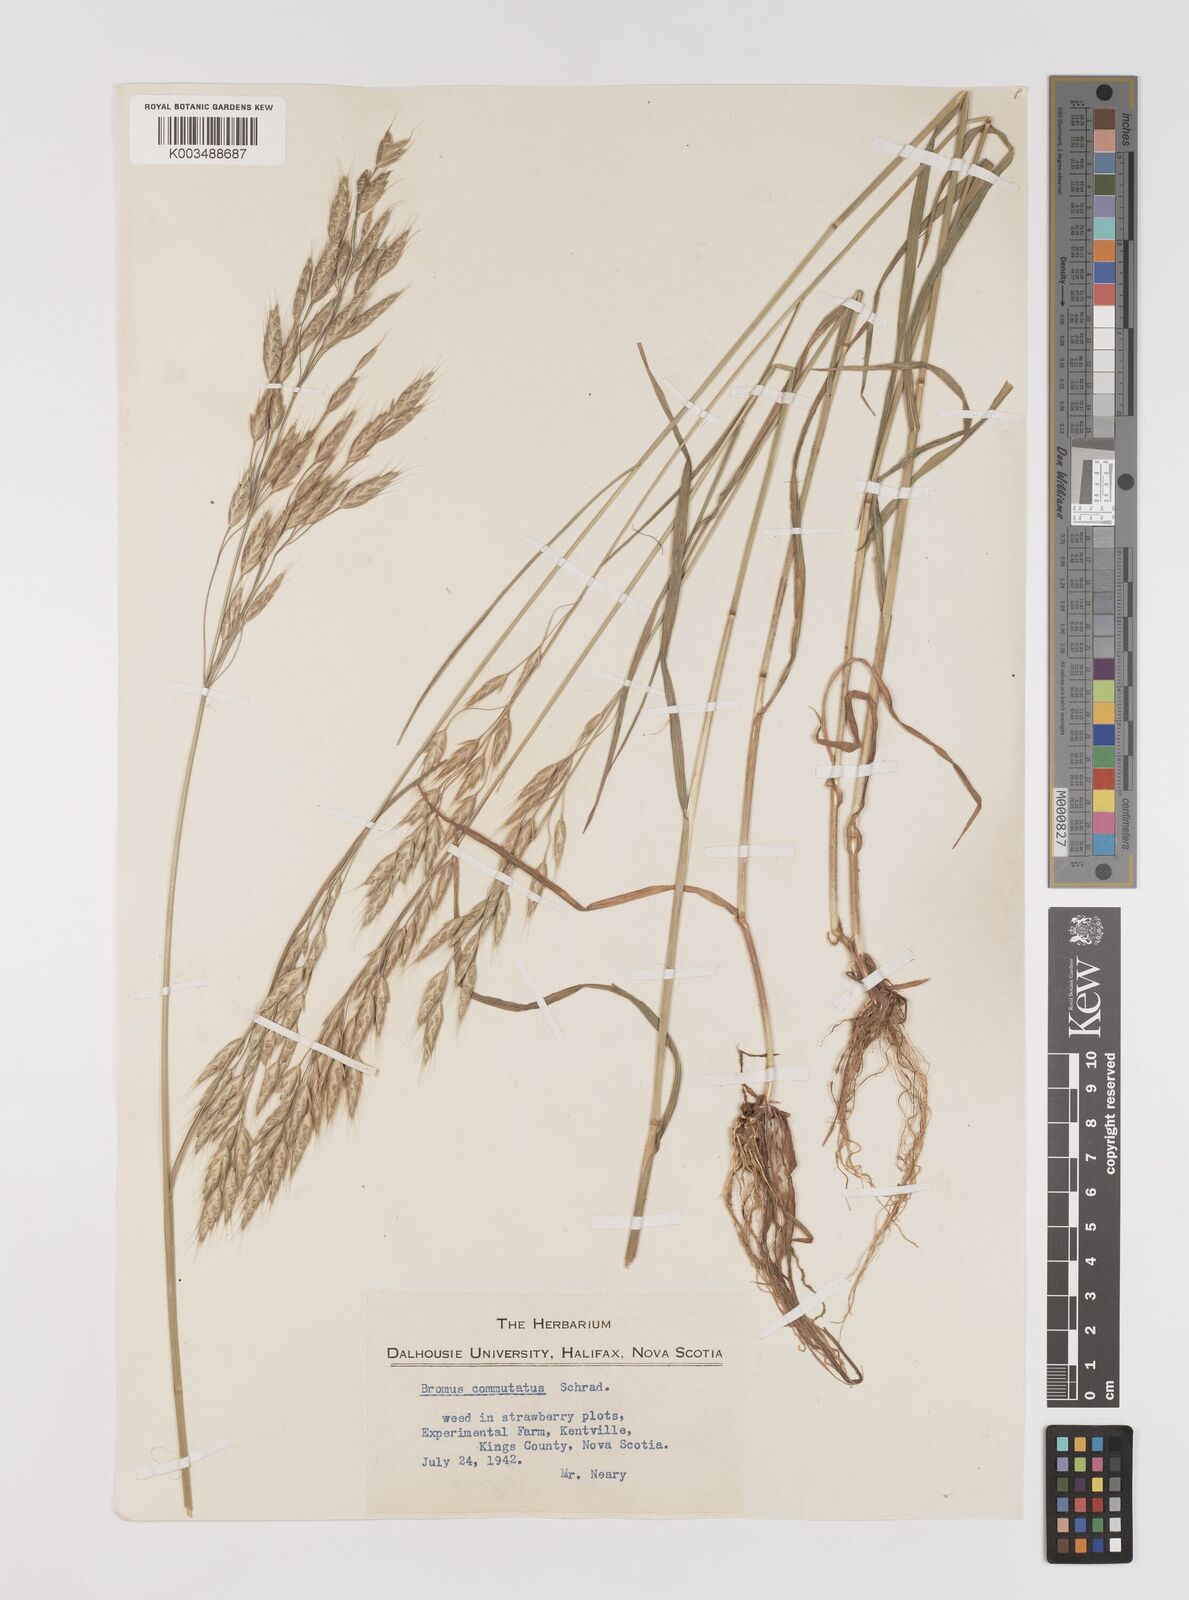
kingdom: Plantae
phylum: Tracheophyta
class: Liliopsida
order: Poales
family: Poaceae
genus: Bromus
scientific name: Bromus racemosus
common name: Bald brome
